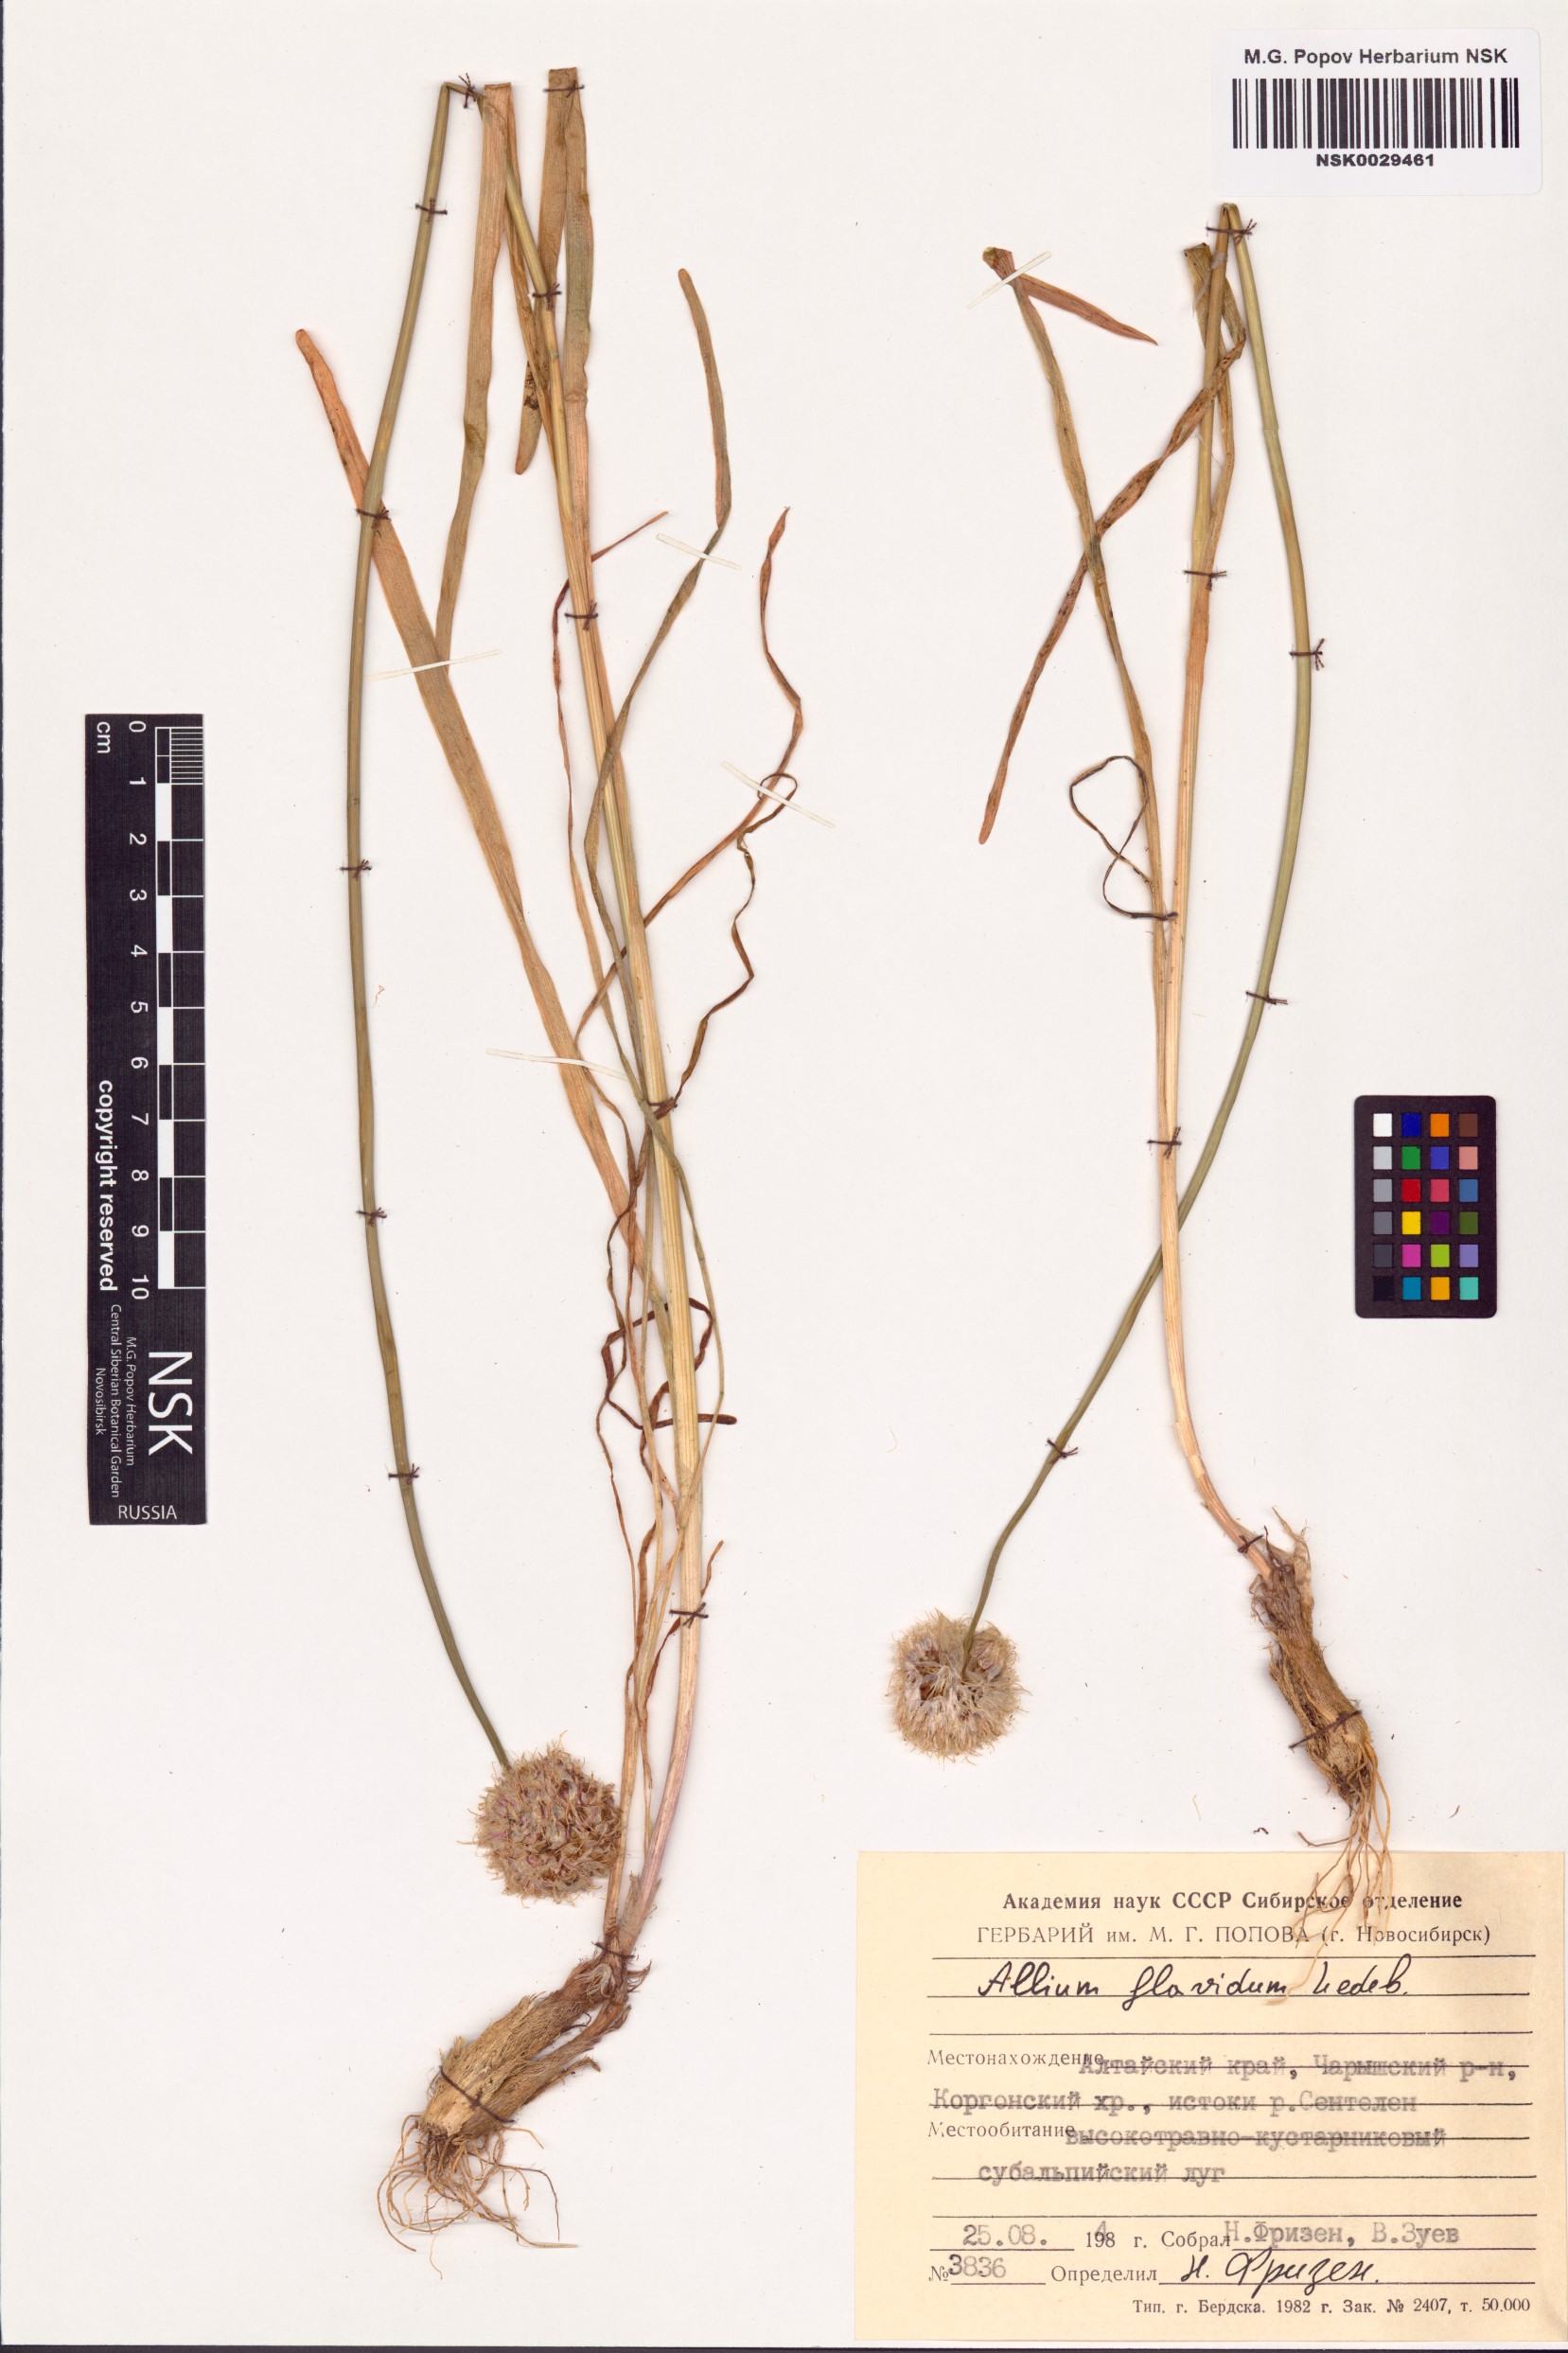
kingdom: Plantae
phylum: Tracheophyta
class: Liliopsida
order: Asparagales
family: Amaryllidaceae
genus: Allium
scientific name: Allium flavidum
